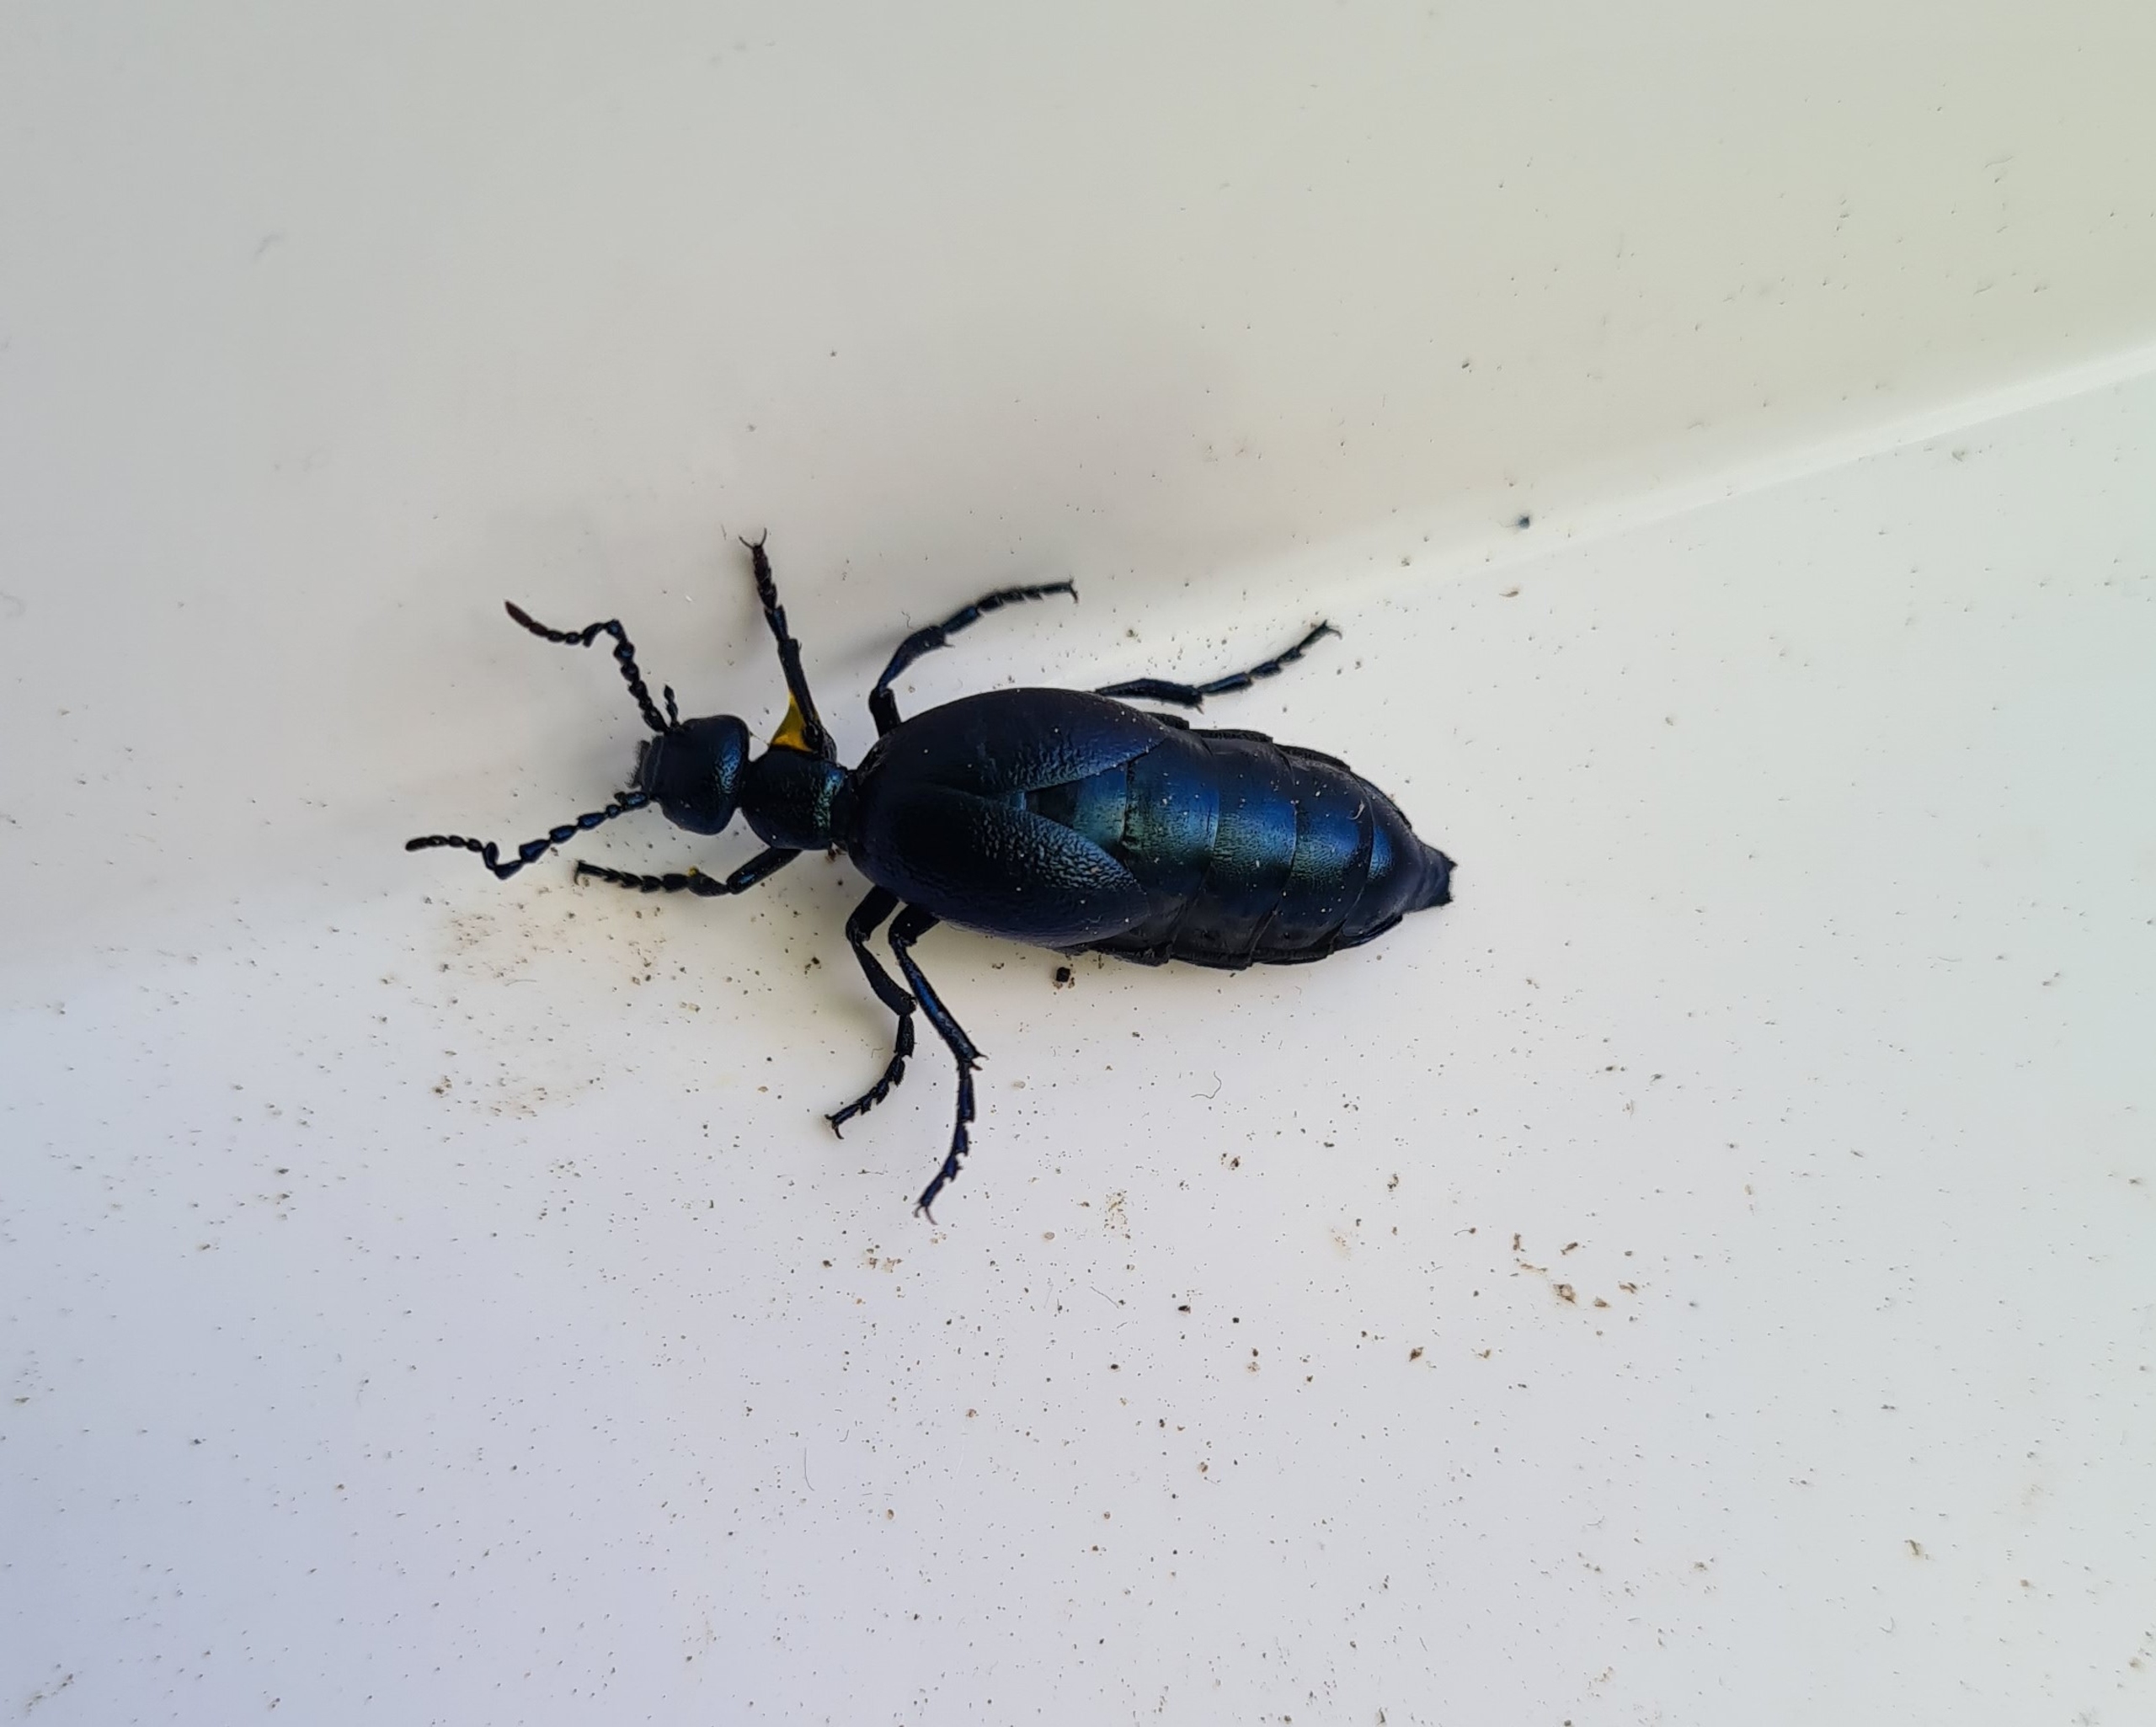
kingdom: Animalia
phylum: Arthropoda
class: Insecta
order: Coleoptera
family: Meloidae
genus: Meloe
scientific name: Meloe violaceus
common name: Blå oliebille
